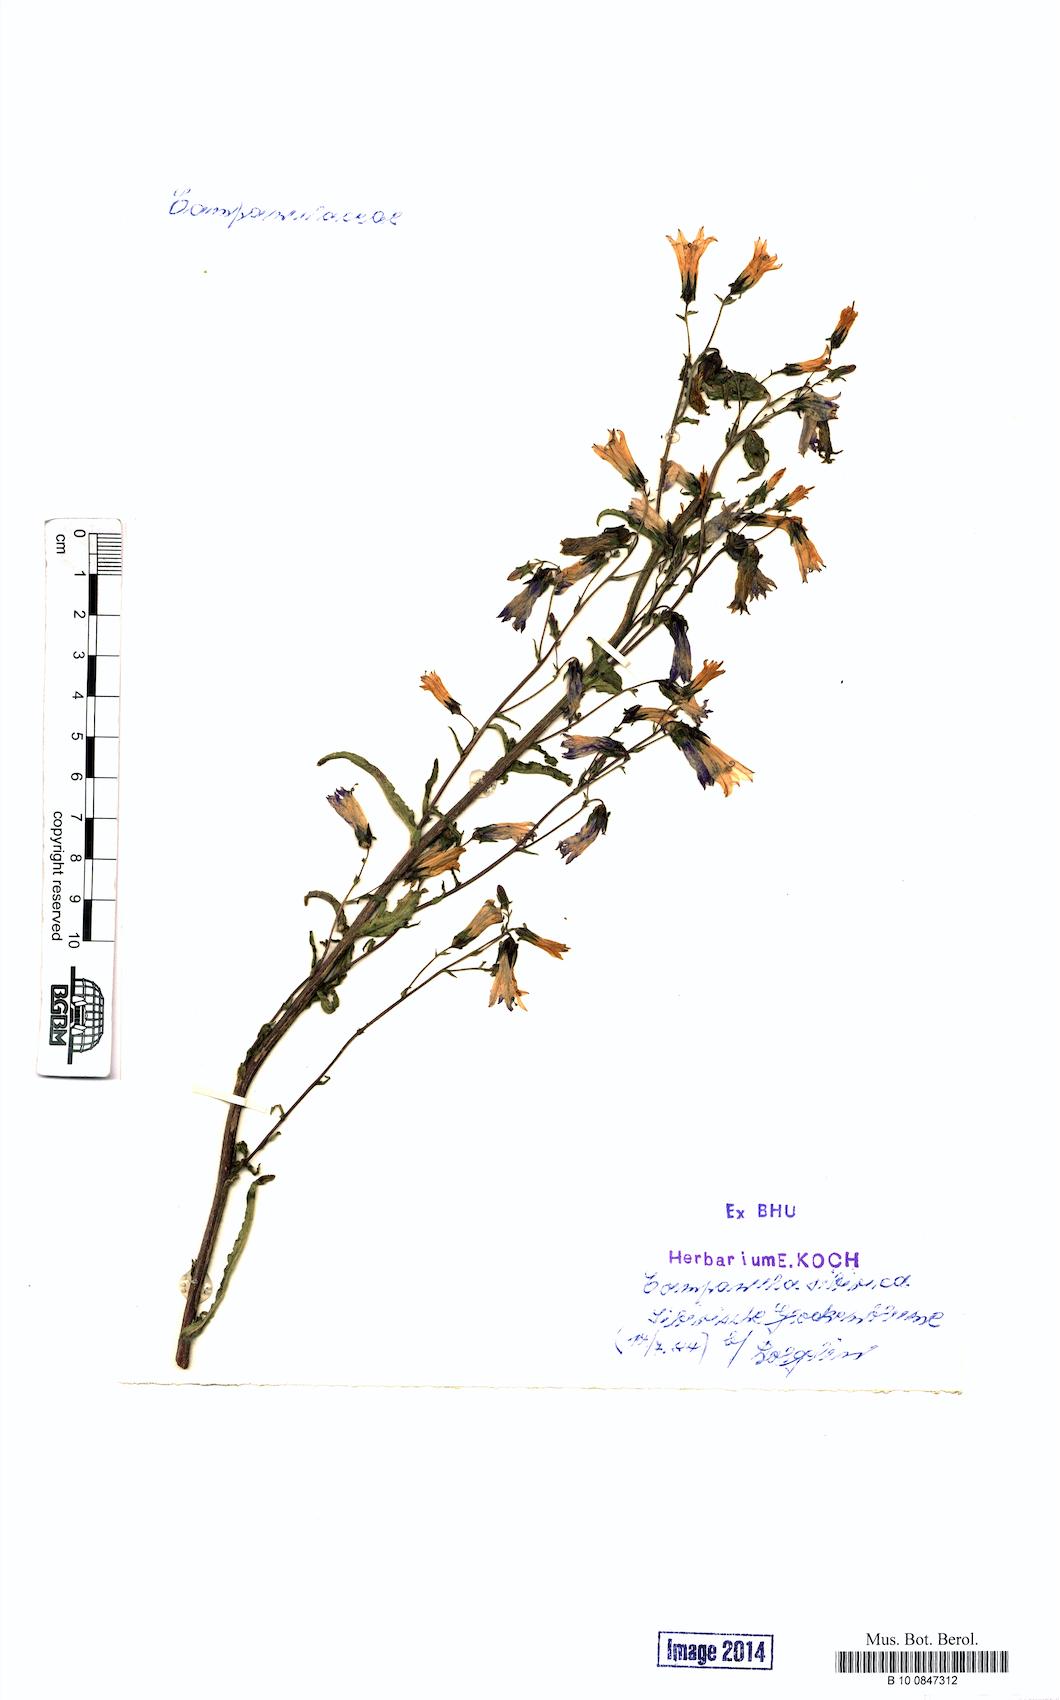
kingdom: Plantae
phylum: Tracheophyta
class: Magnoliopsida
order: Asterales
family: Campanulaceae
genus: Campanula
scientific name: Campanula sibirica
